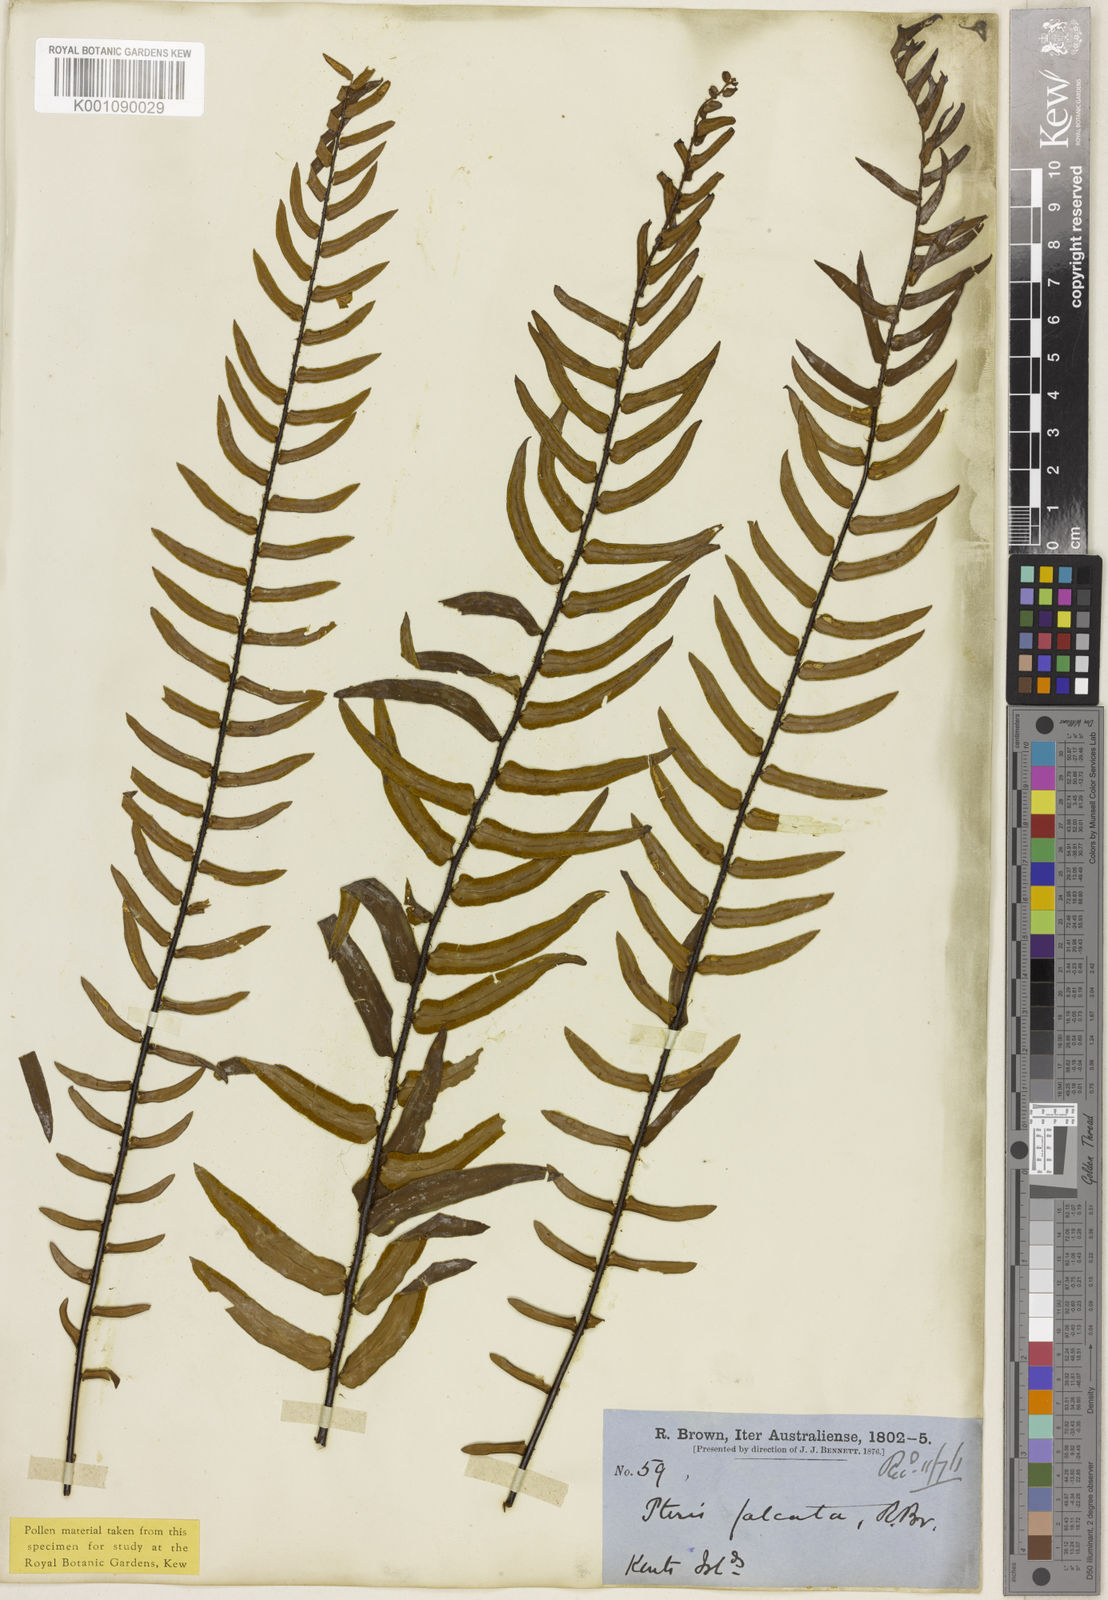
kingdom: Plantae
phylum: Tracheophyta
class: Polypodiopsida
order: Polypodiales
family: Pteridaceae
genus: Pellaea
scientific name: Pellaea
